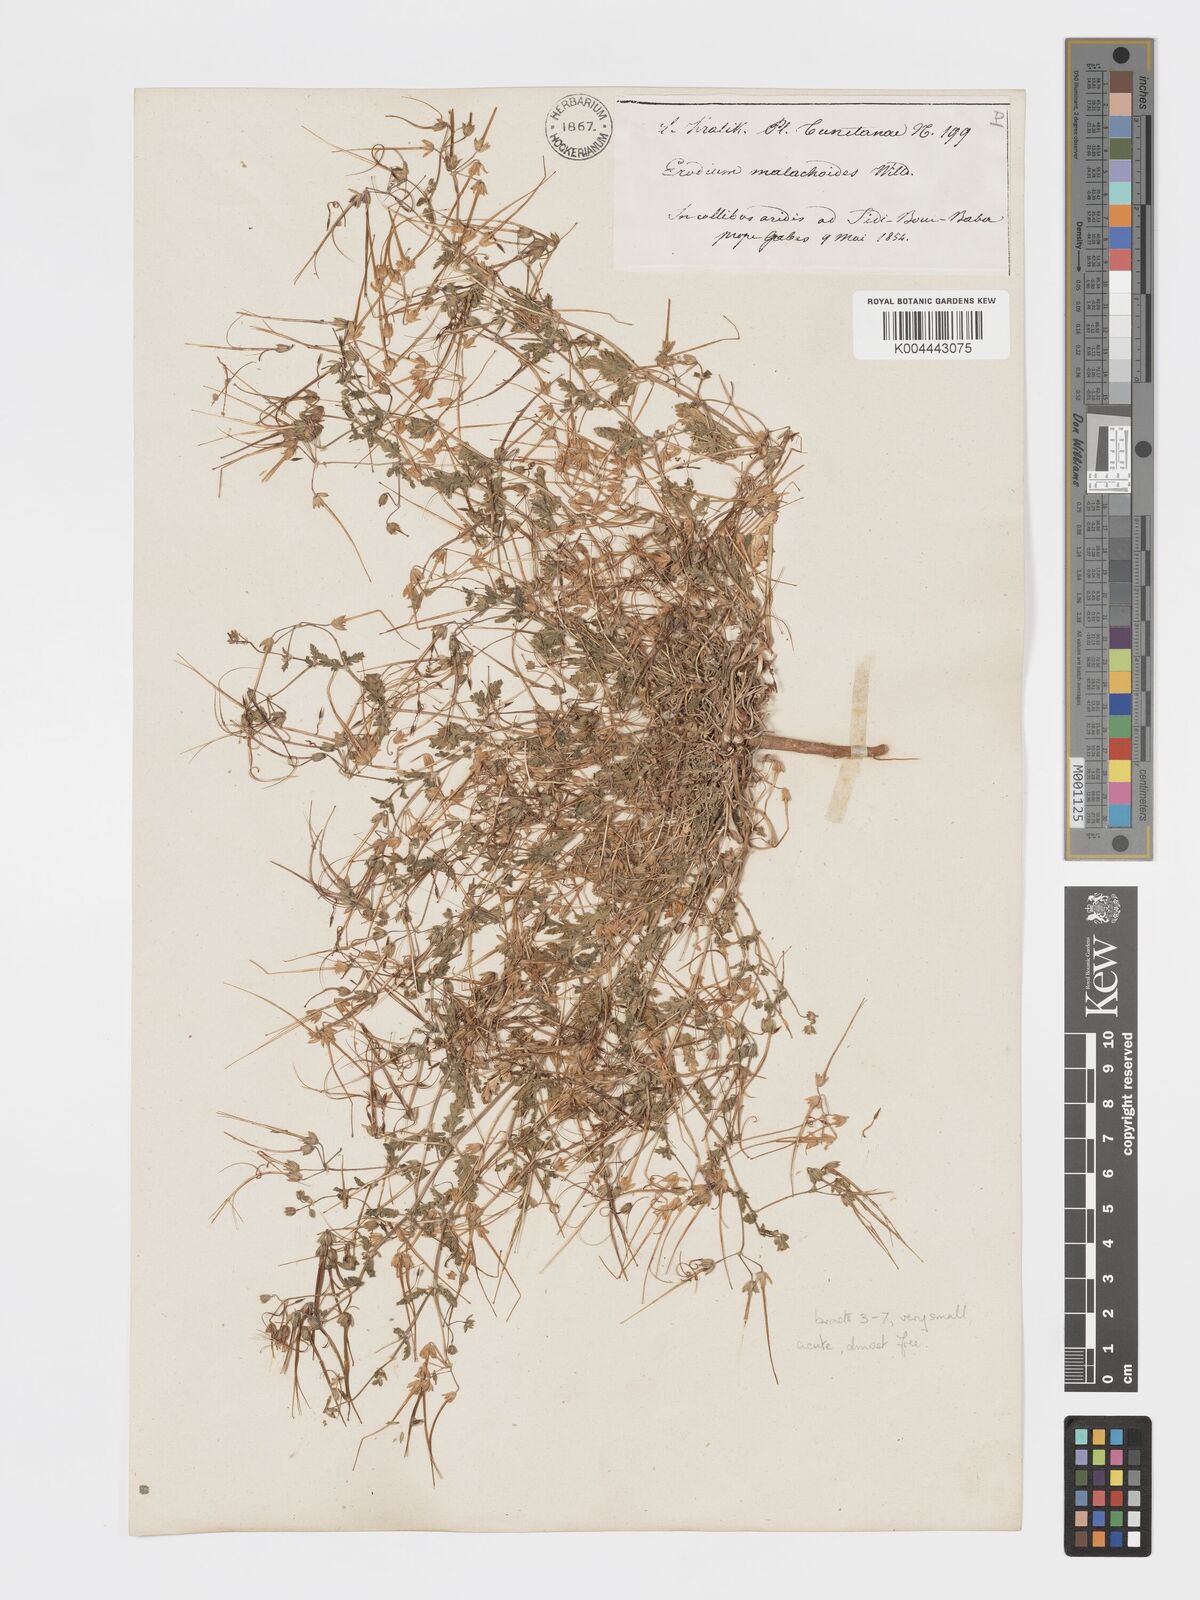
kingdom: Plantae
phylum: Tracheophyta
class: Magnoliopsida
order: Geraniales
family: Geraniaceae
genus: Erodium
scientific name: Erodium laciniatum
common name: Cutleaf stork's bill
